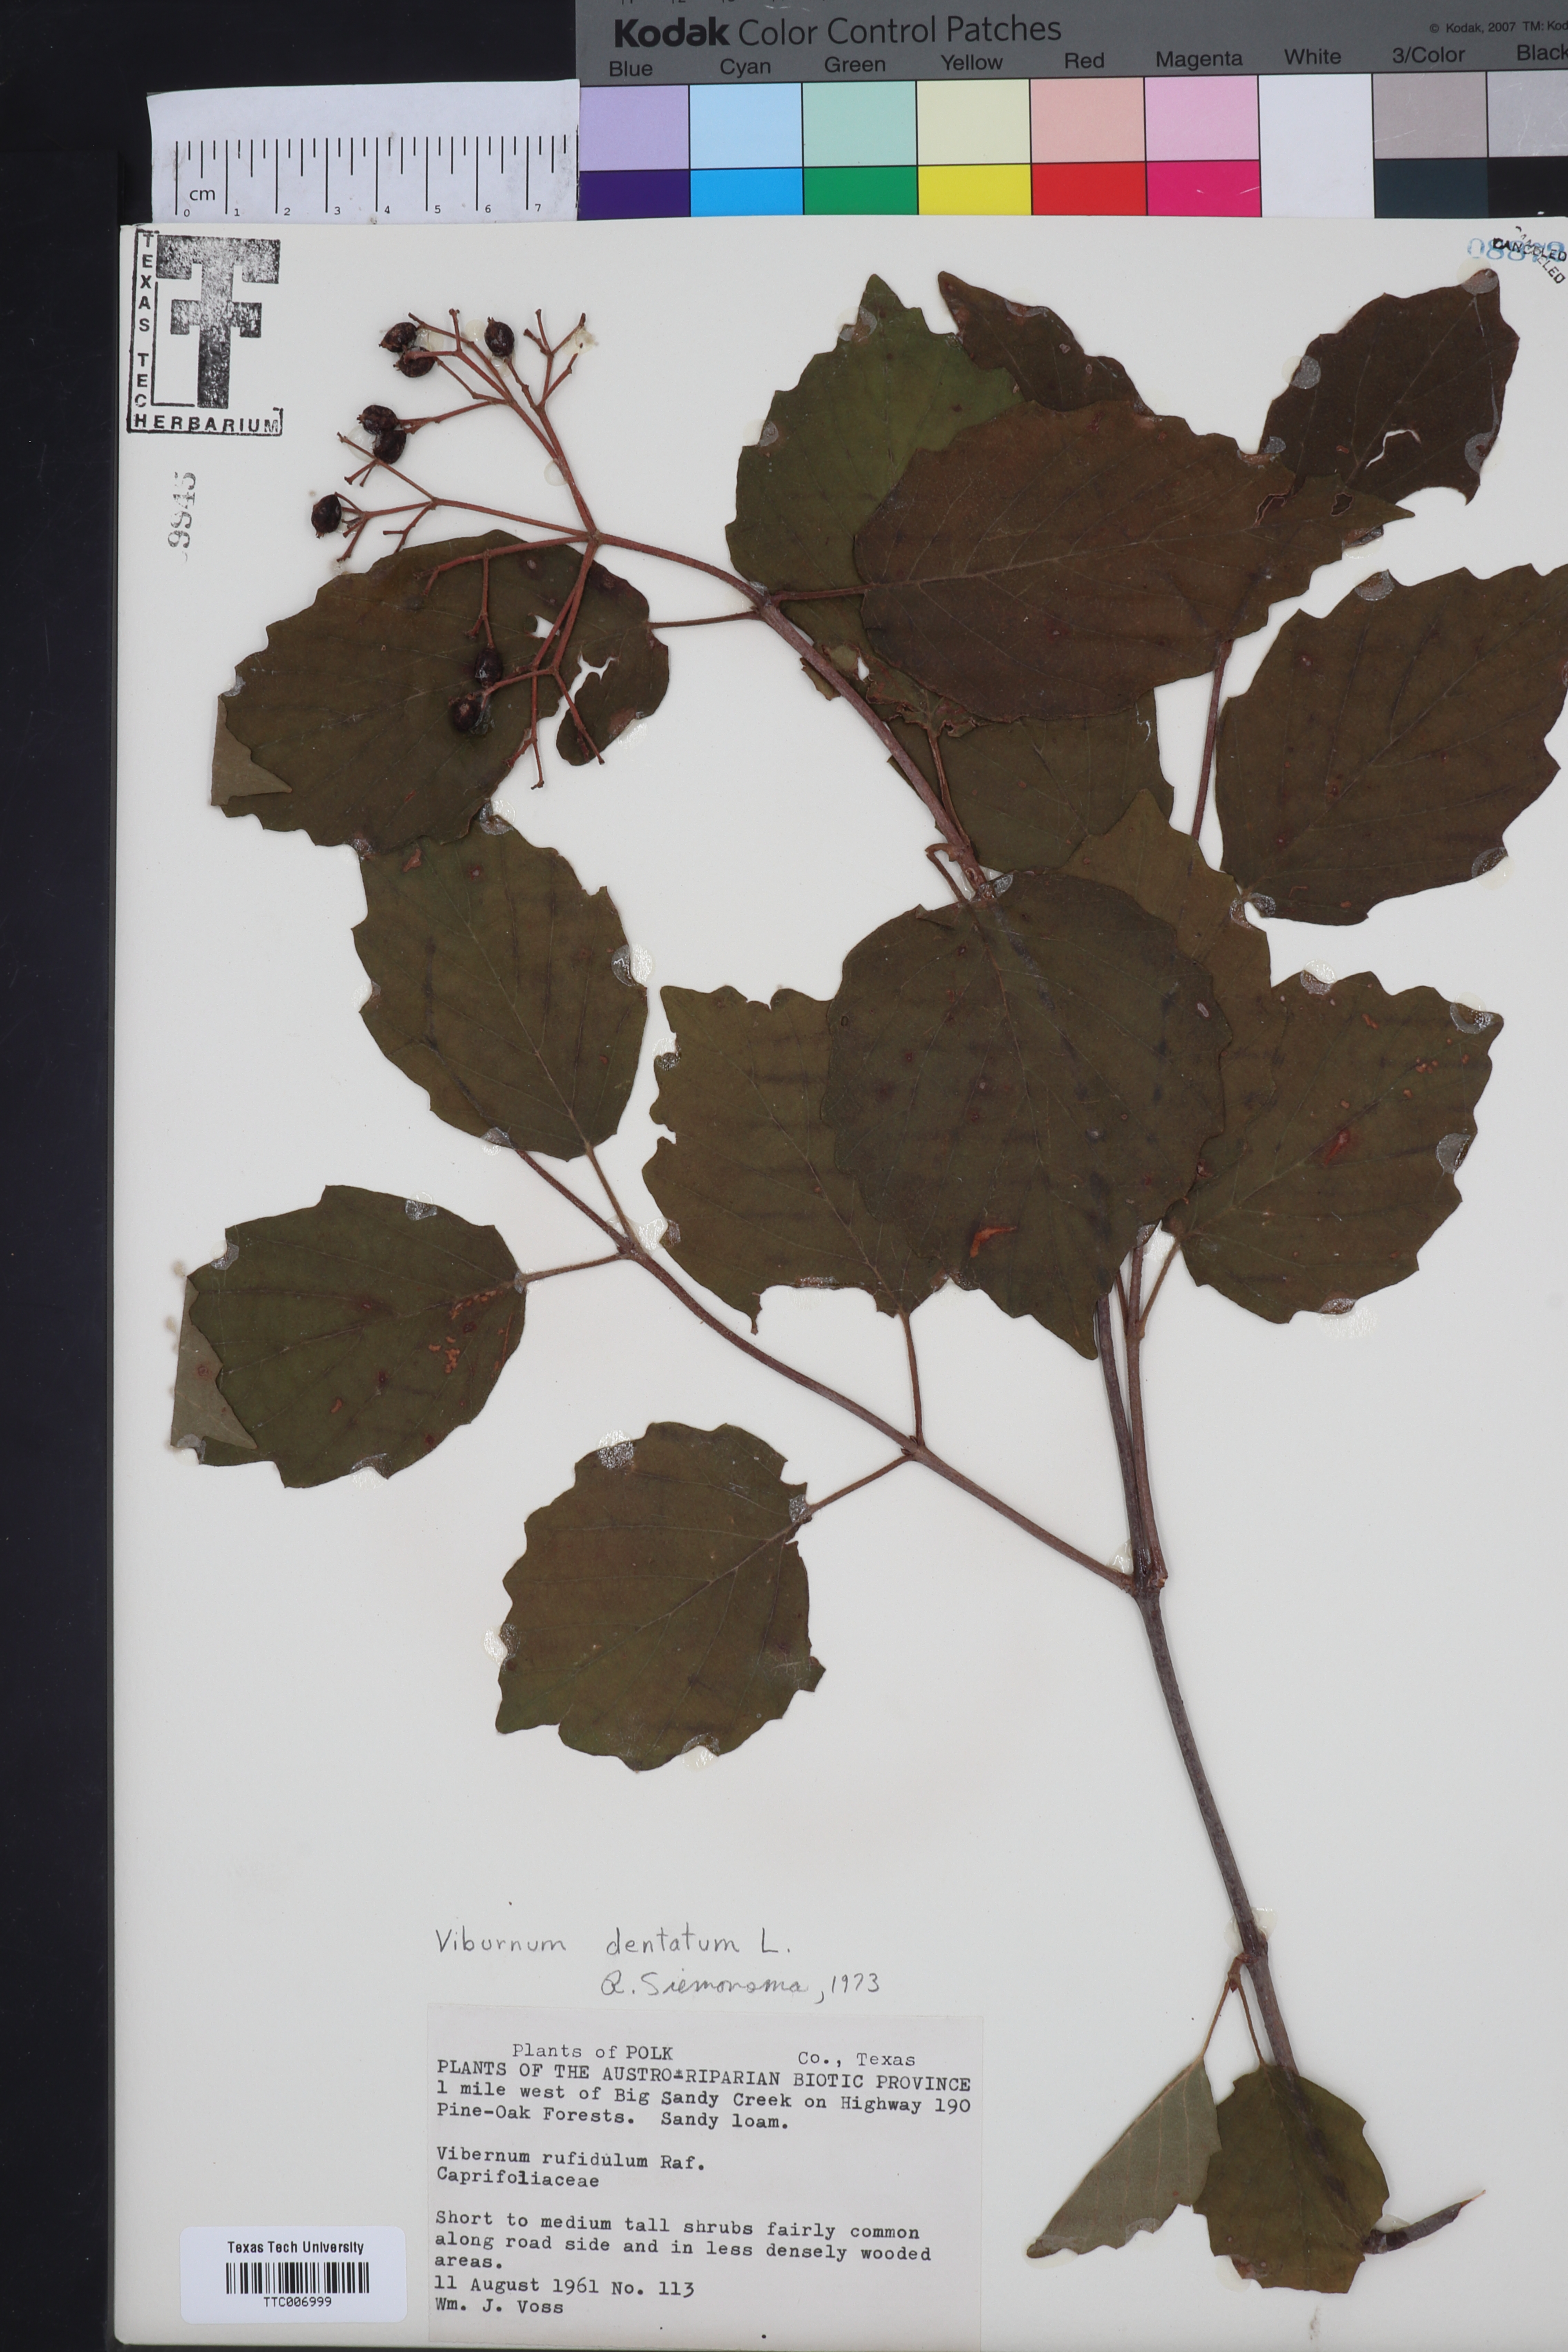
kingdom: Plantae
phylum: Tracheophyta
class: Magnoliopsida
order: Dipsacales
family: Viburnaceae
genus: Viburnum
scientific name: Viburnum dentatum
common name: Arrow-wood
